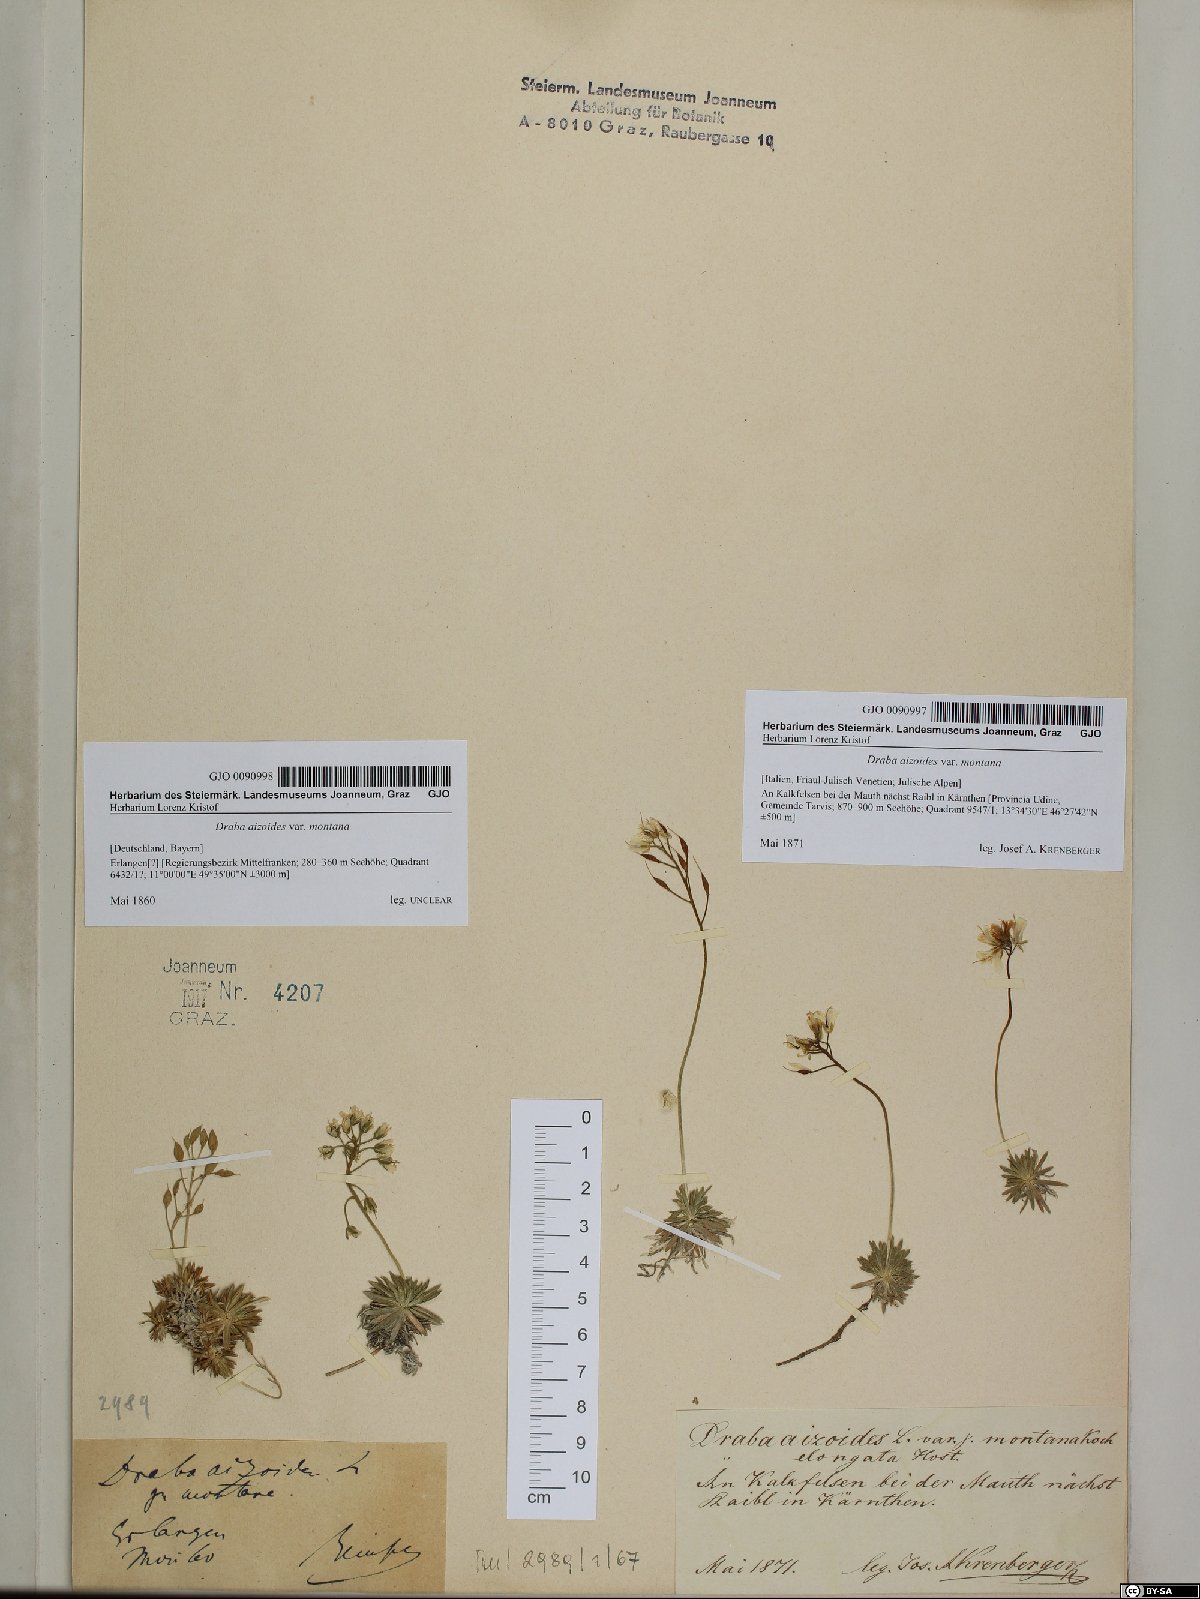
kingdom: Plantae
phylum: Tracheophyta
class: Magnoliopsida
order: Brassicales
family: Brassicaceae
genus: Draba
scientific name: Draba aizoides
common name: Yellow whitlowgrass
